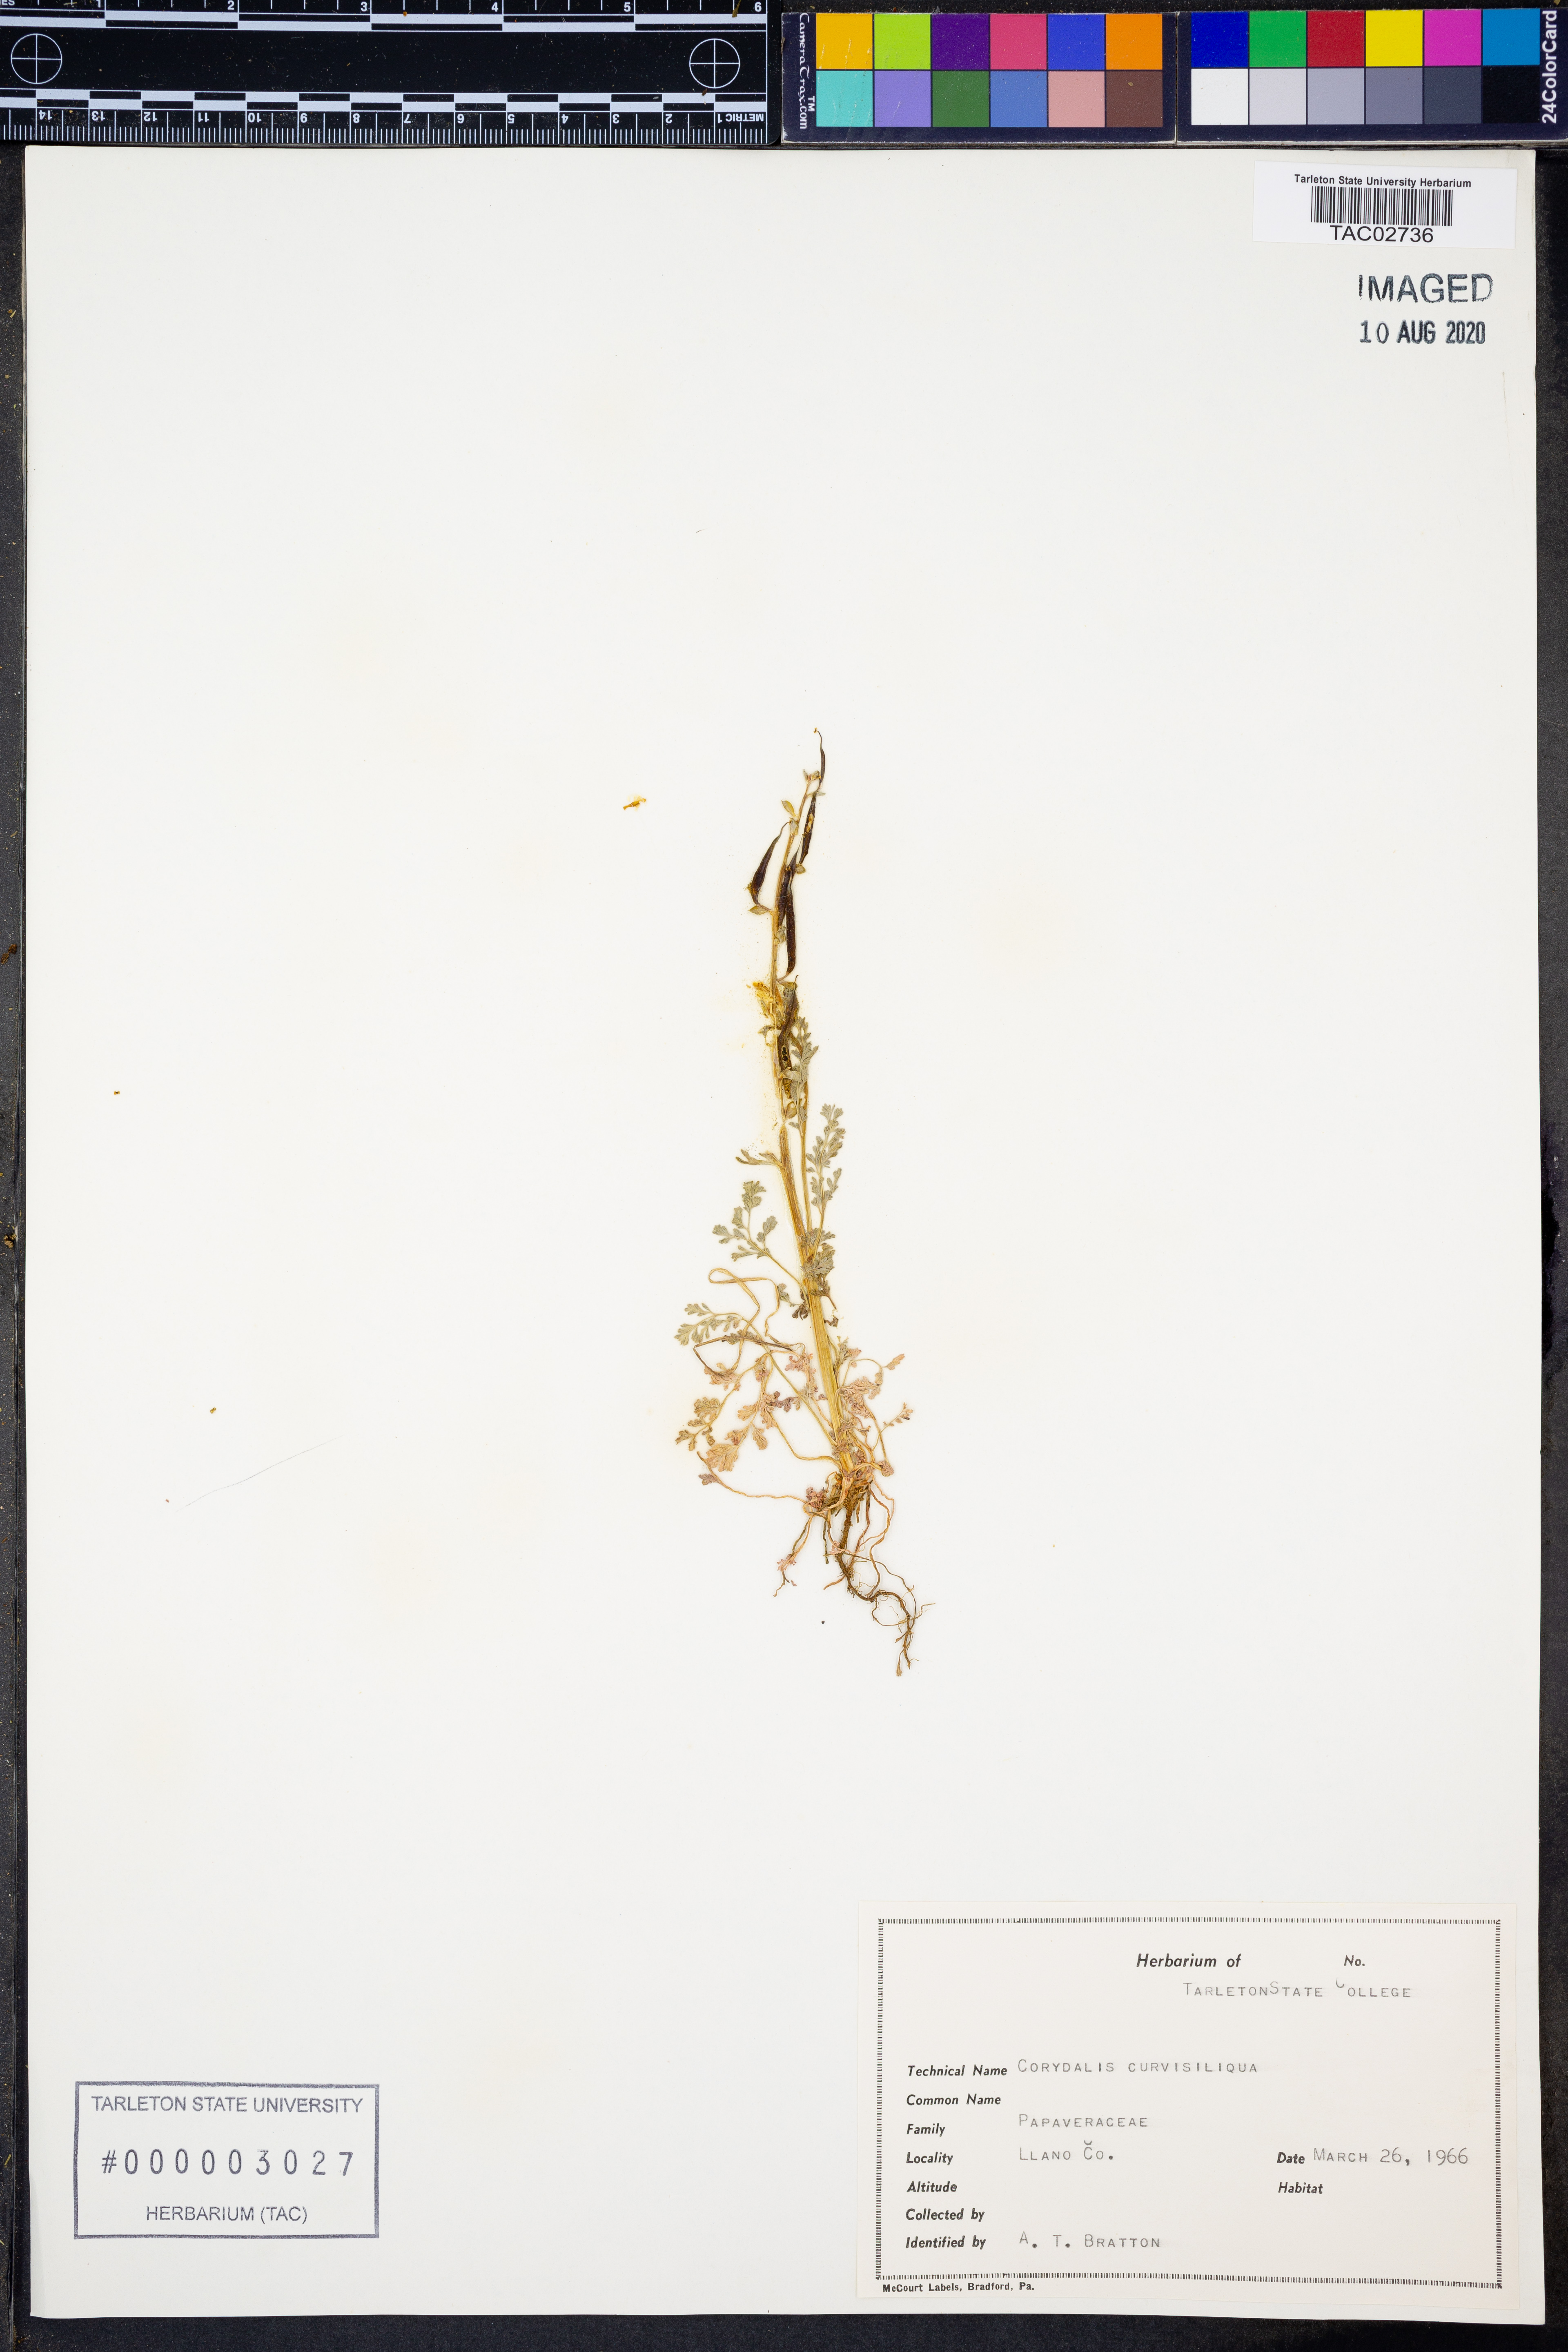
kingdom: Plantae
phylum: Tracheophyta
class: Magnoliopsida
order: Ranunculales
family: Papaveraceae
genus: Corydalis
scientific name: Corydalis curvisiliqua
